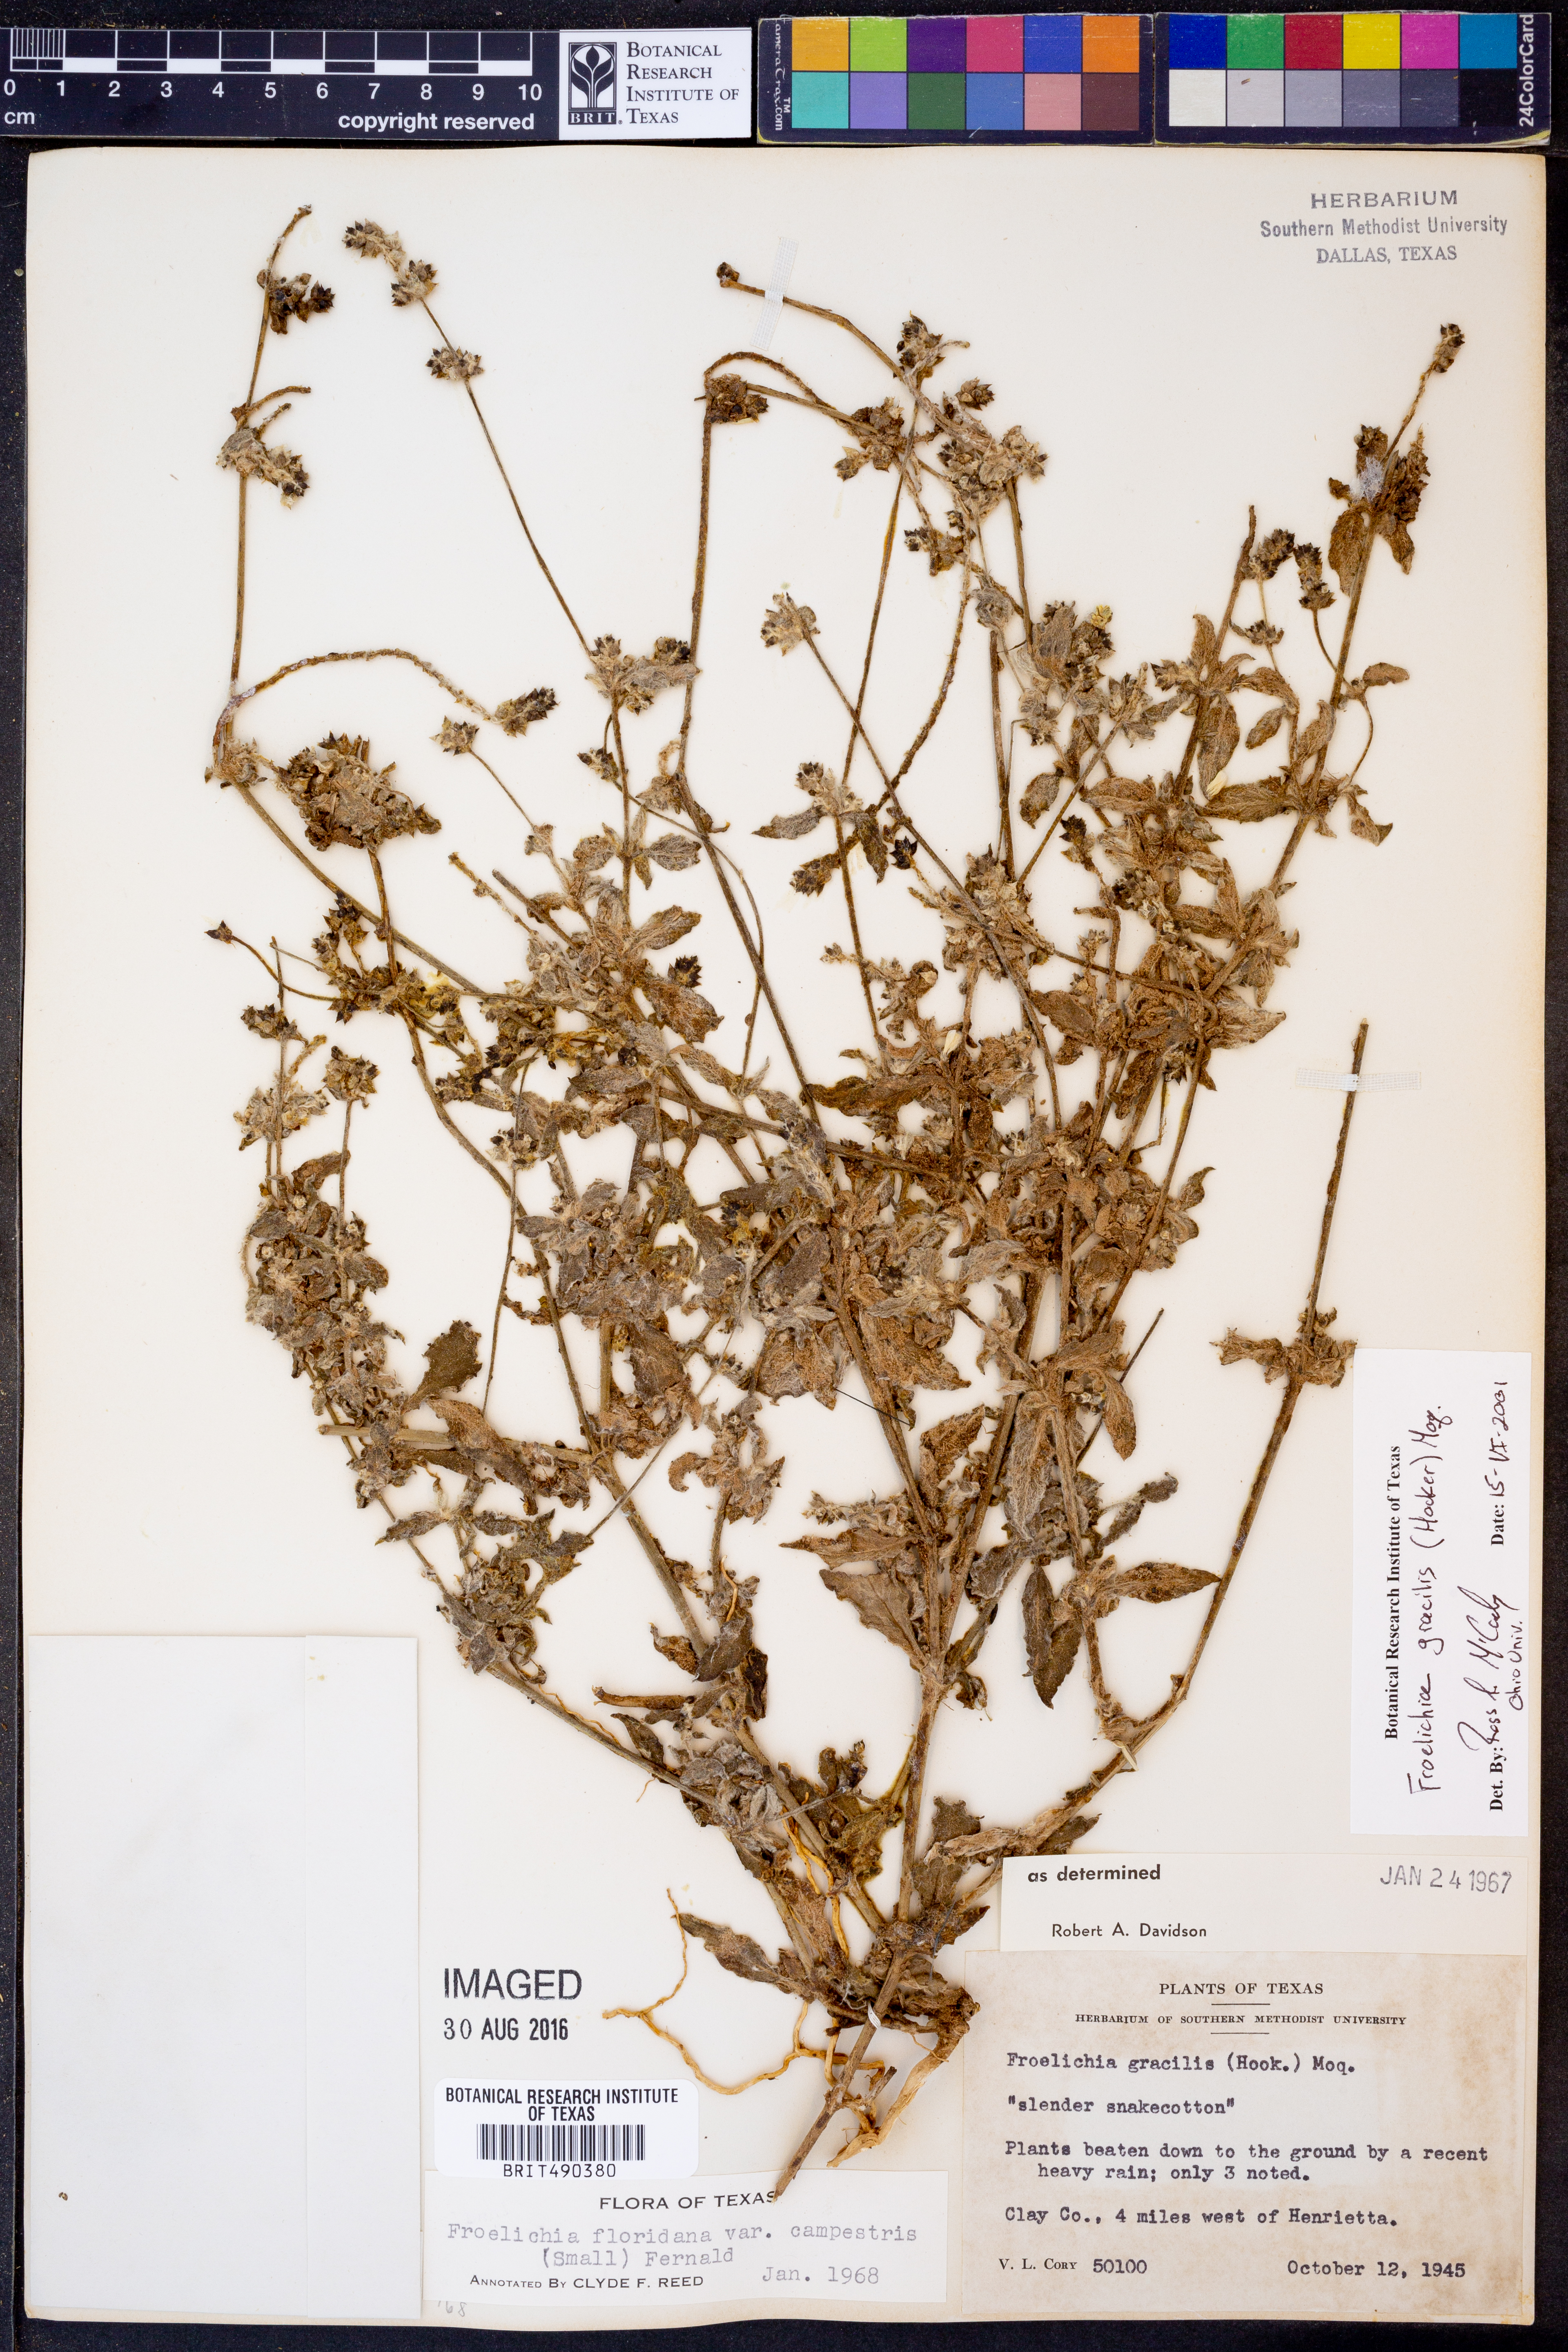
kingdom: Plantae
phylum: Tracheophyta
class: Magnoliopsida
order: Caryophyllales
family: Amaranthaceae
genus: Froelichia
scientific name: Froelichia gracilis
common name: Slender cottonweed
